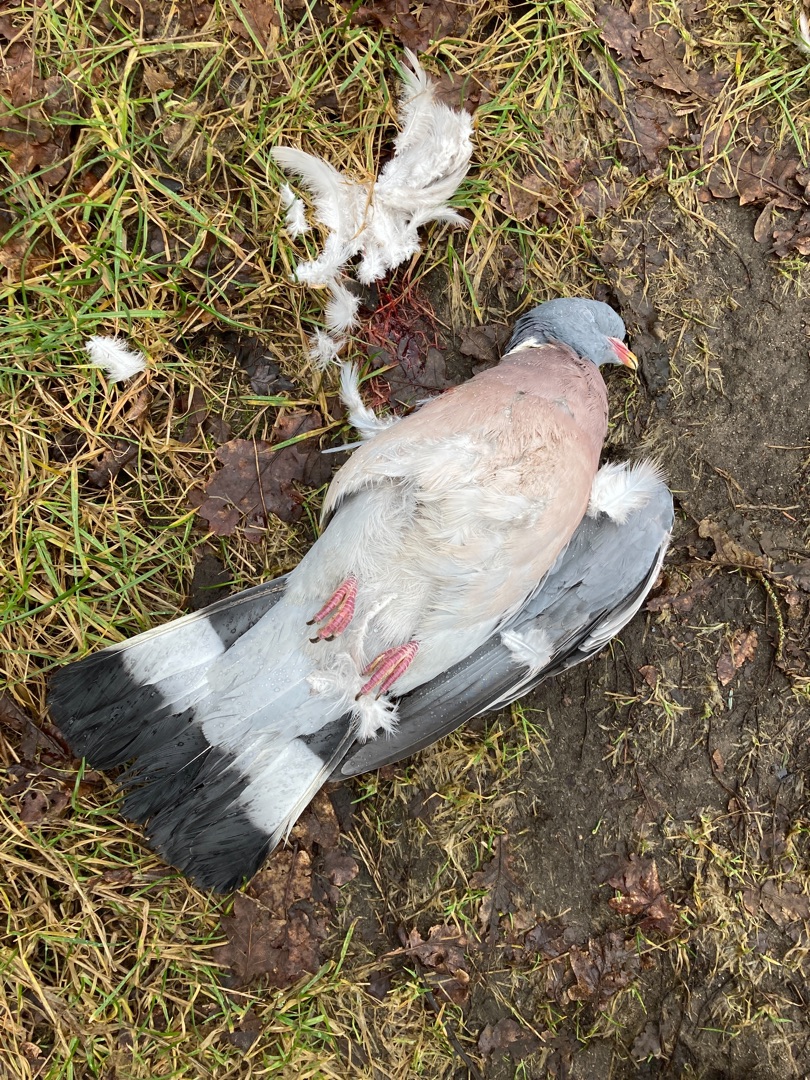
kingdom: Animalia
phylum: Chordata
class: Aves
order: Columbiformes
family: Columbidae
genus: Columba
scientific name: Columba palumbus
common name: Ringdue
